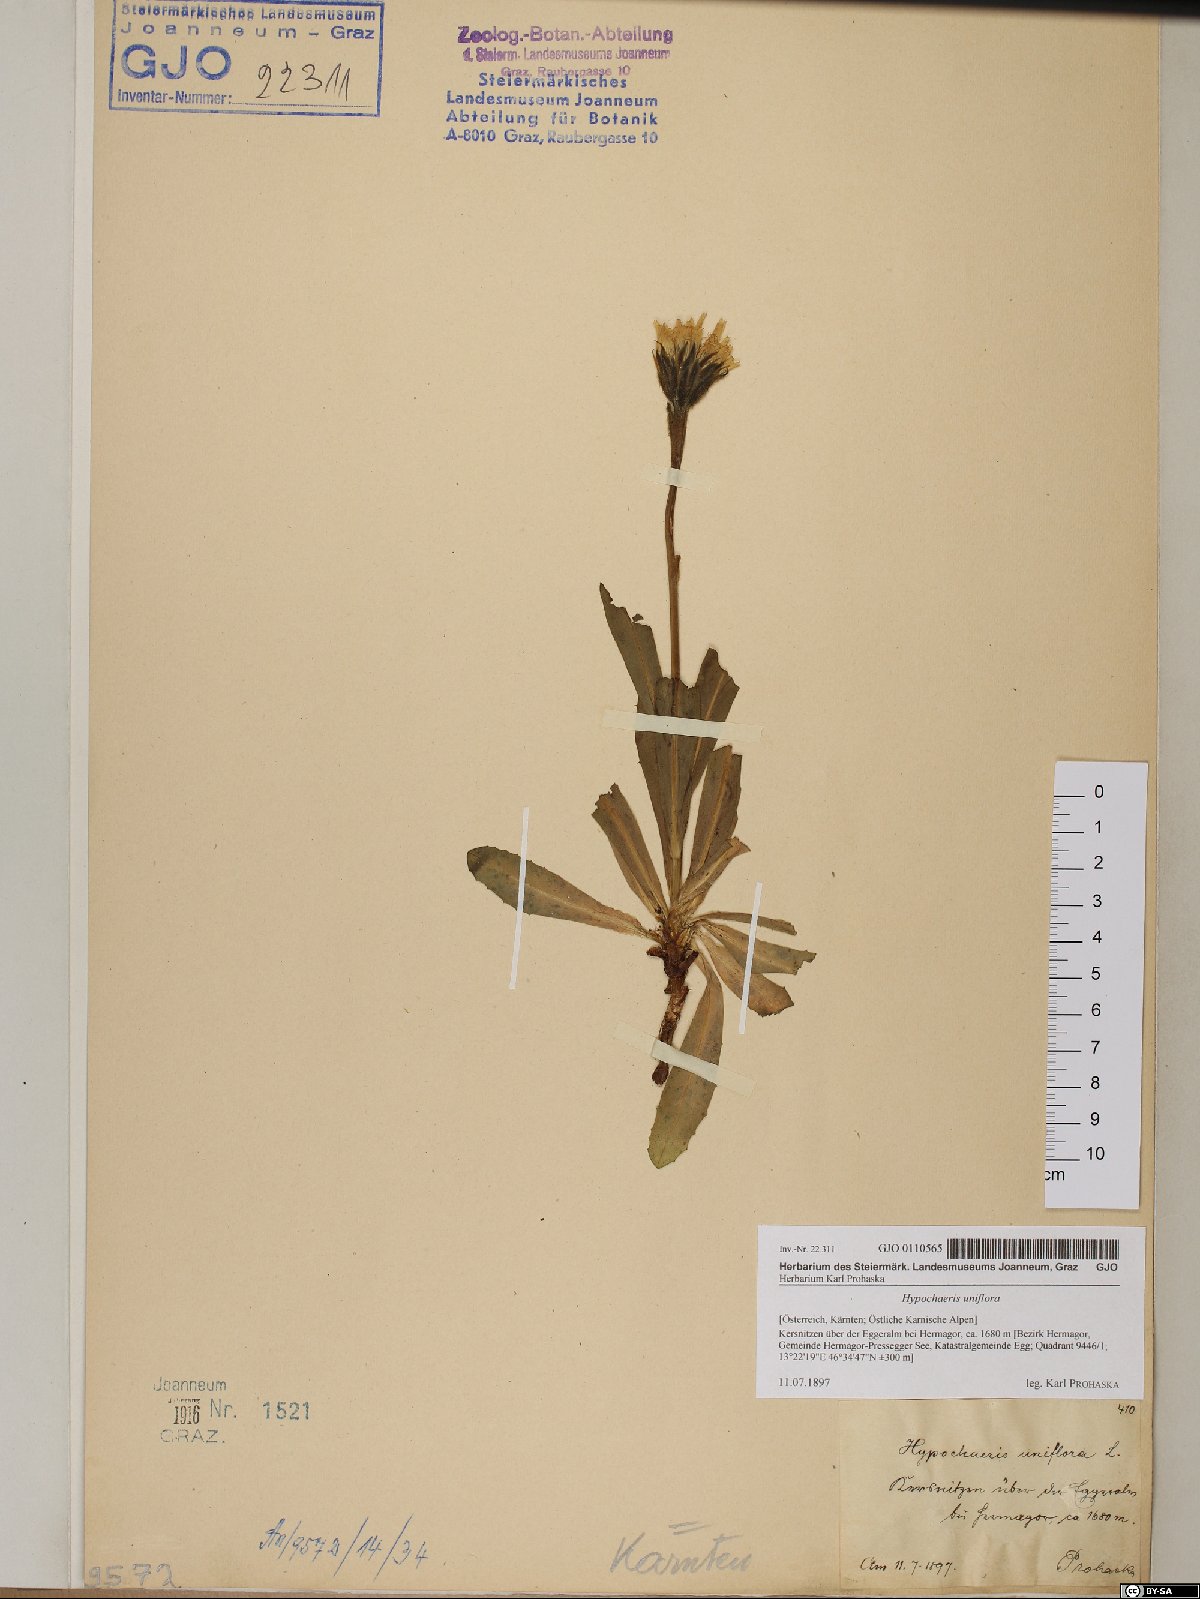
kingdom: Plantae
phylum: Tracheophyta
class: Magnoliopsida
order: Asterales
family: Asteraceae
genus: Trommsdorffia
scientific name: Trommsdorffia uniflora
